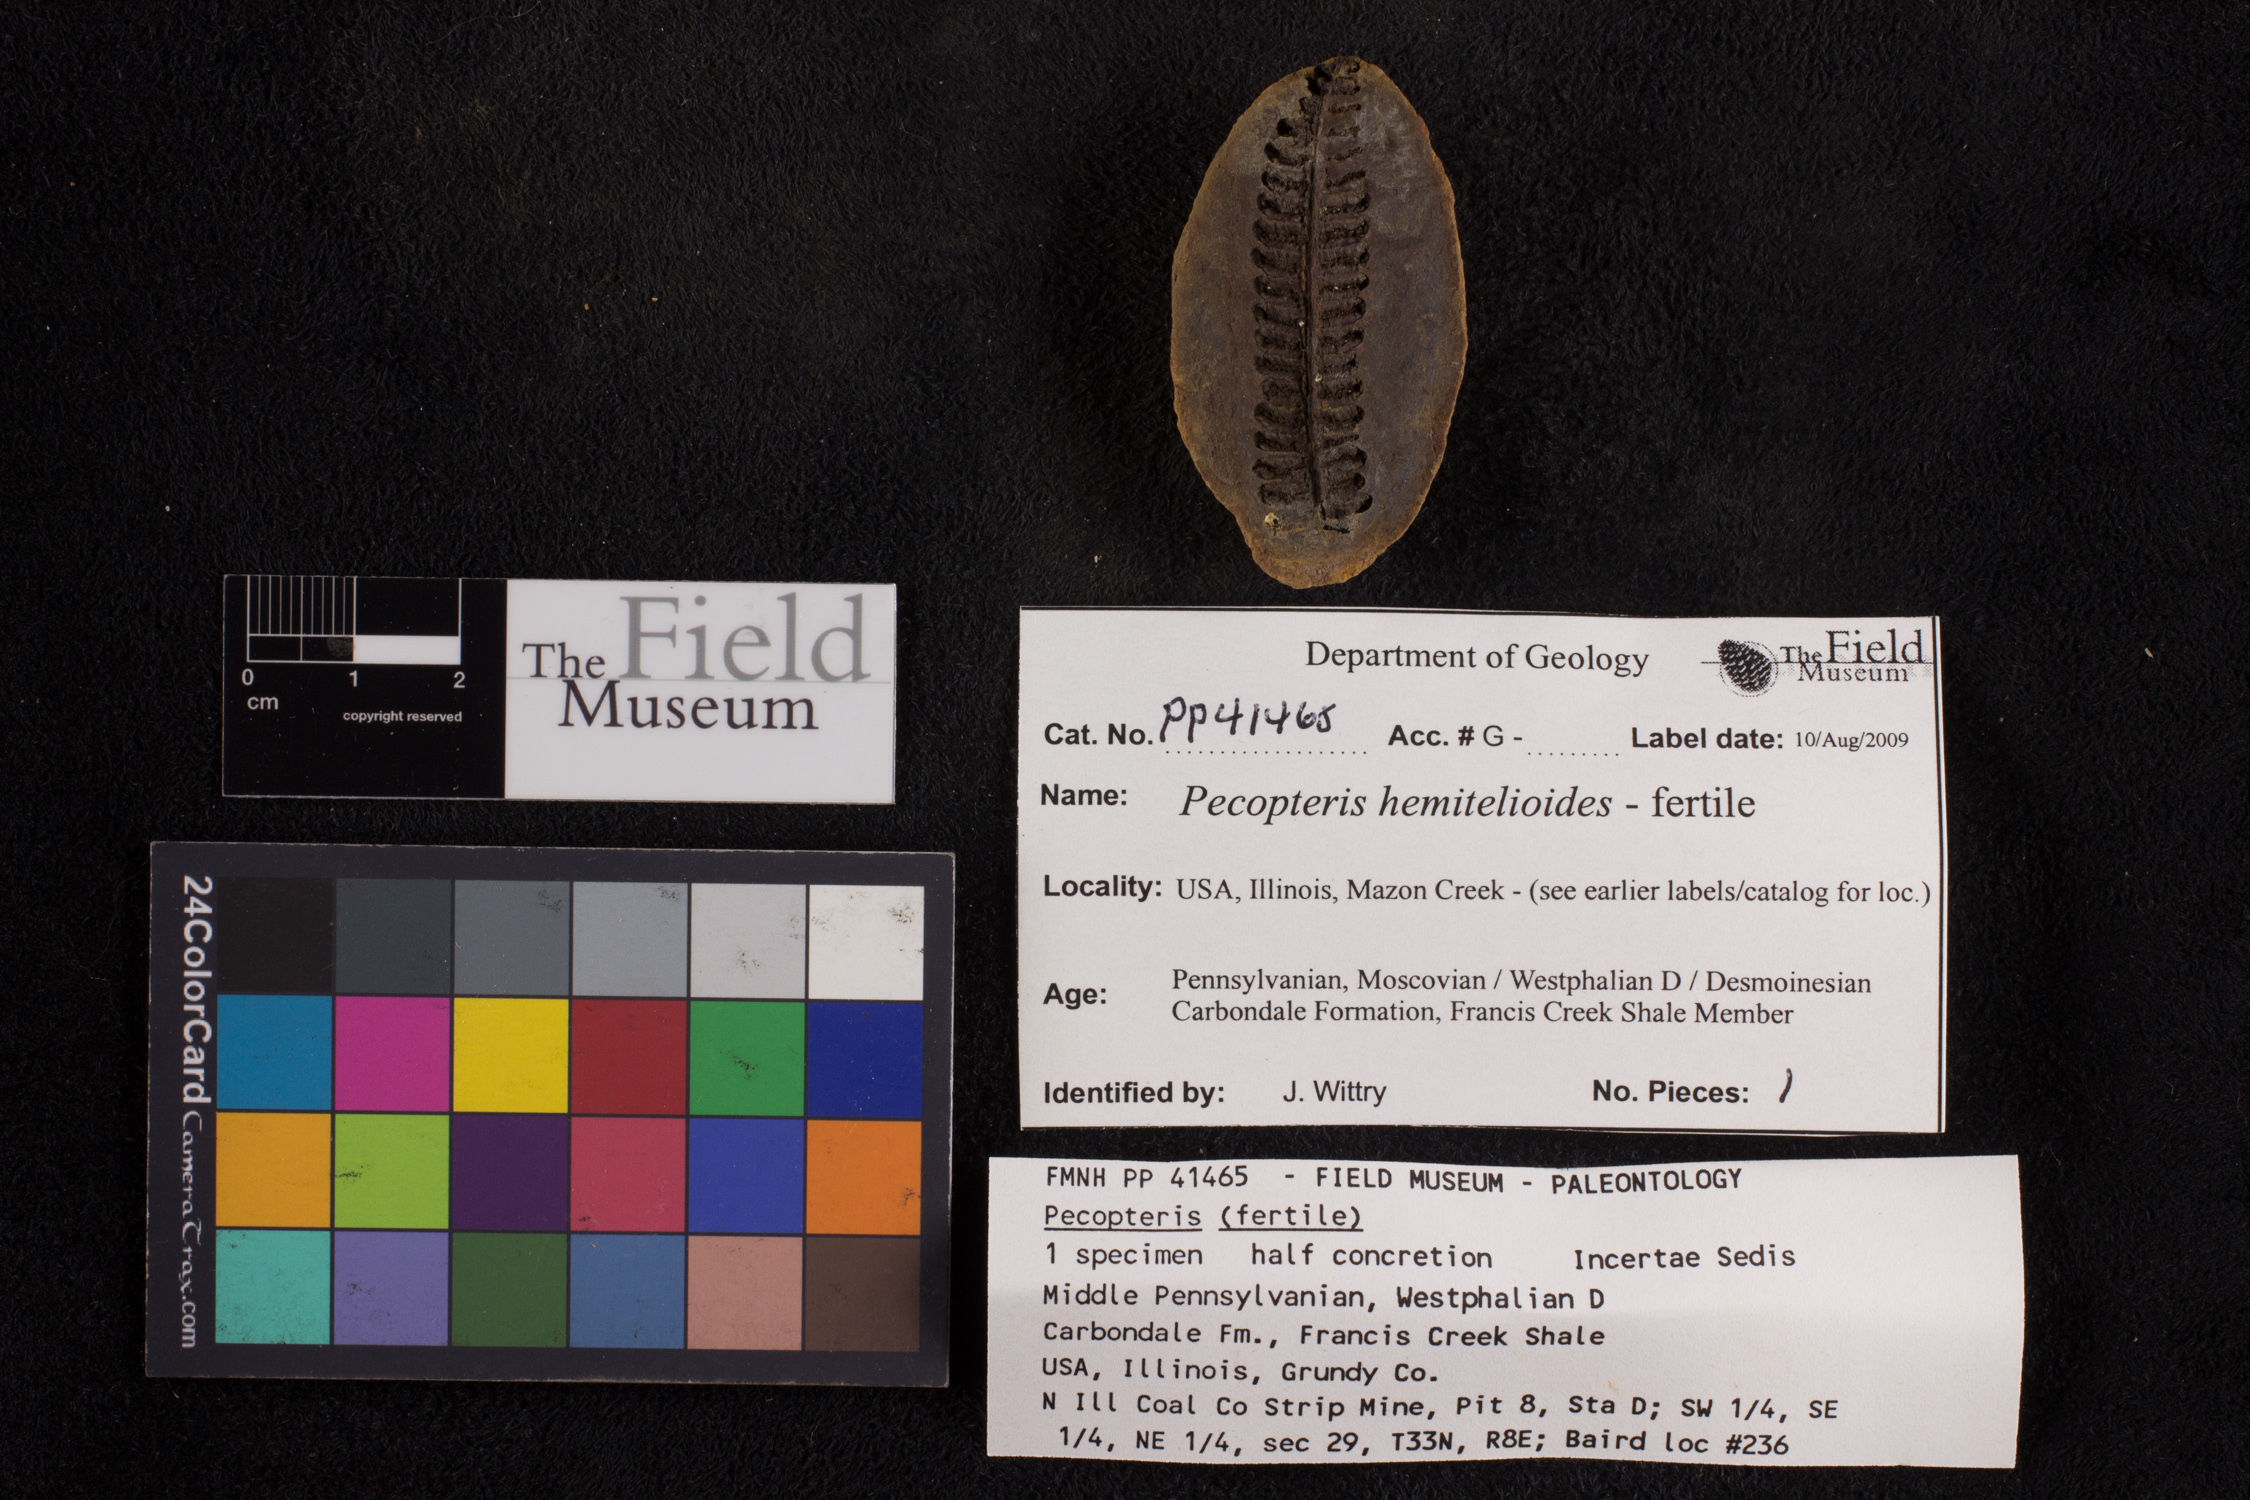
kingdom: Plantae
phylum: Tracheophyta
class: Polypodiopsida
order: Marattiales
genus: Cyathocarpus
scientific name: Cyathocarpus
